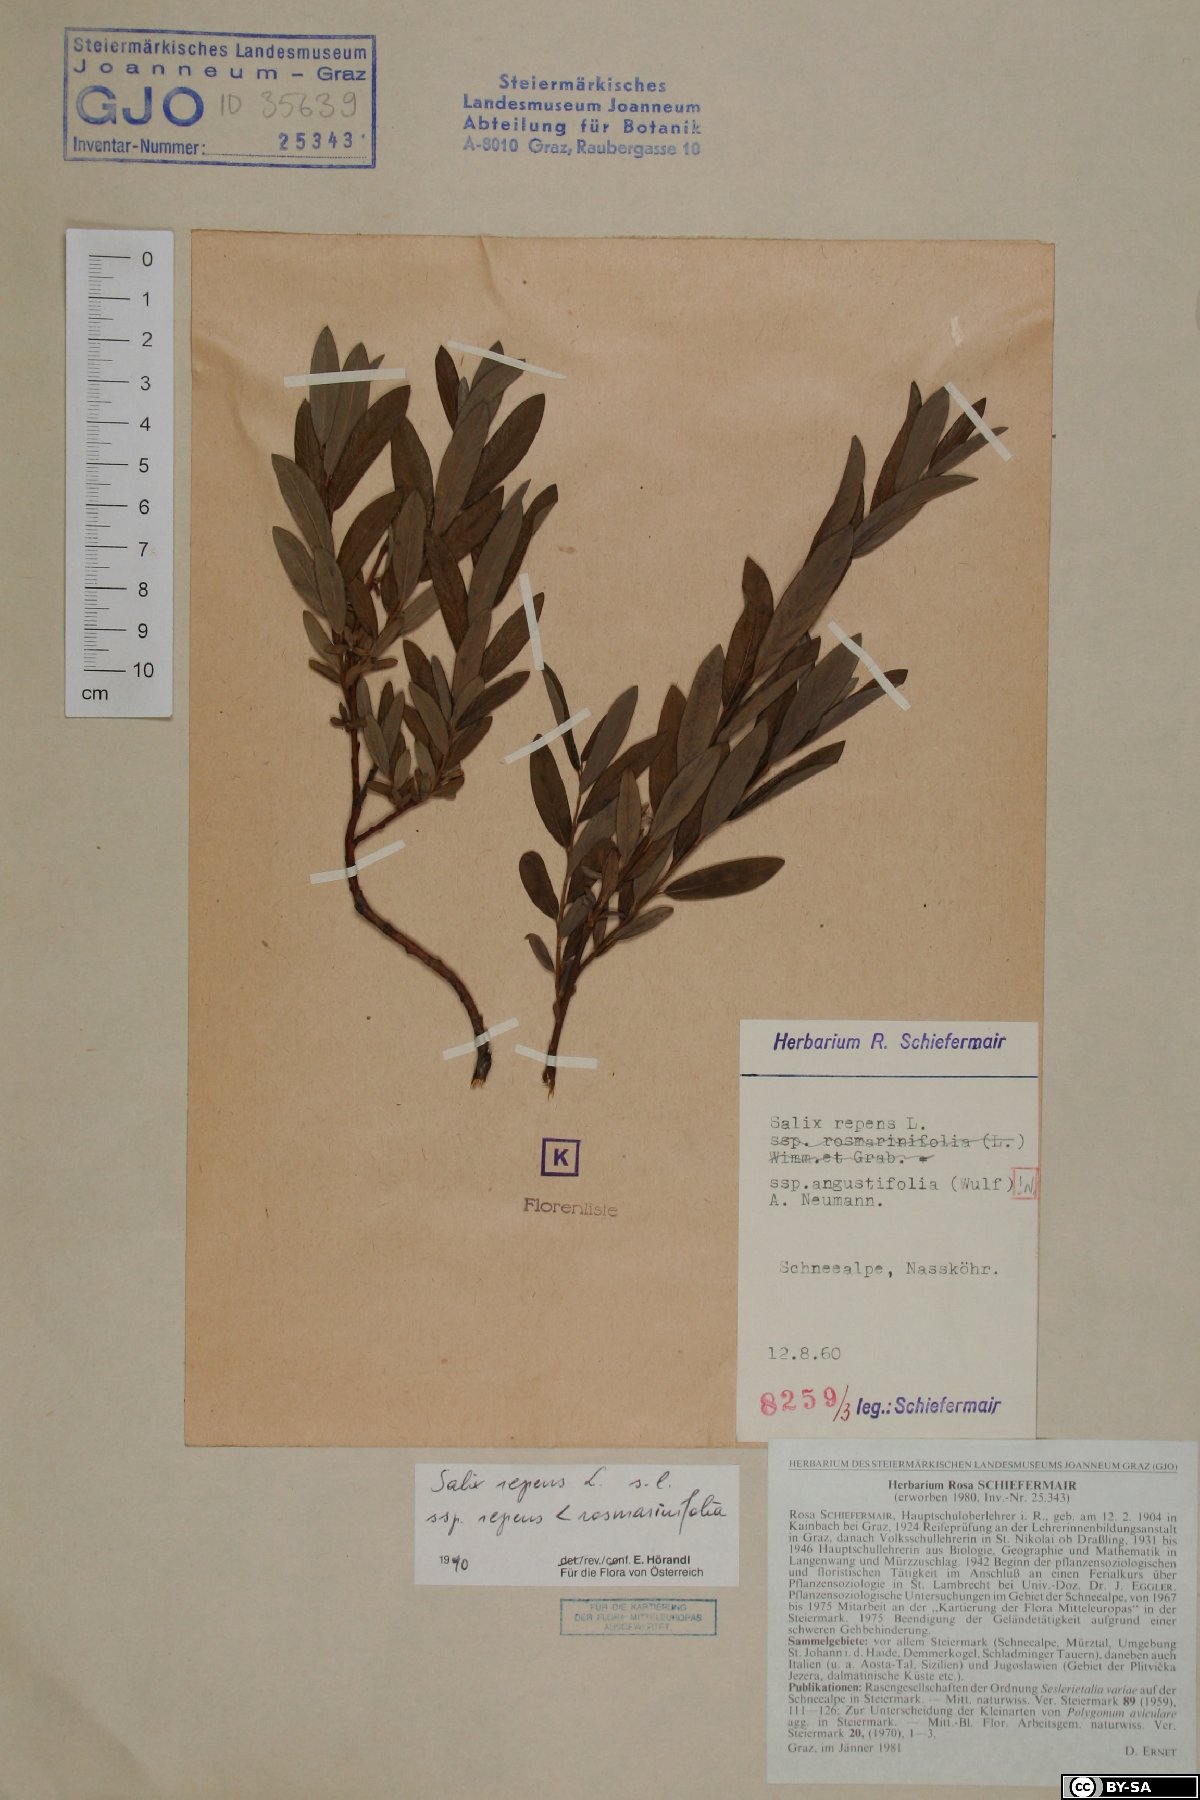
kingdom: Plantae
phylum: Tracheophyta
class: Magnoliopsida
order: Malpighiales
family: Salicaceae
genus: Salix
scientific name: Salix repens
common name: Creeping willow
